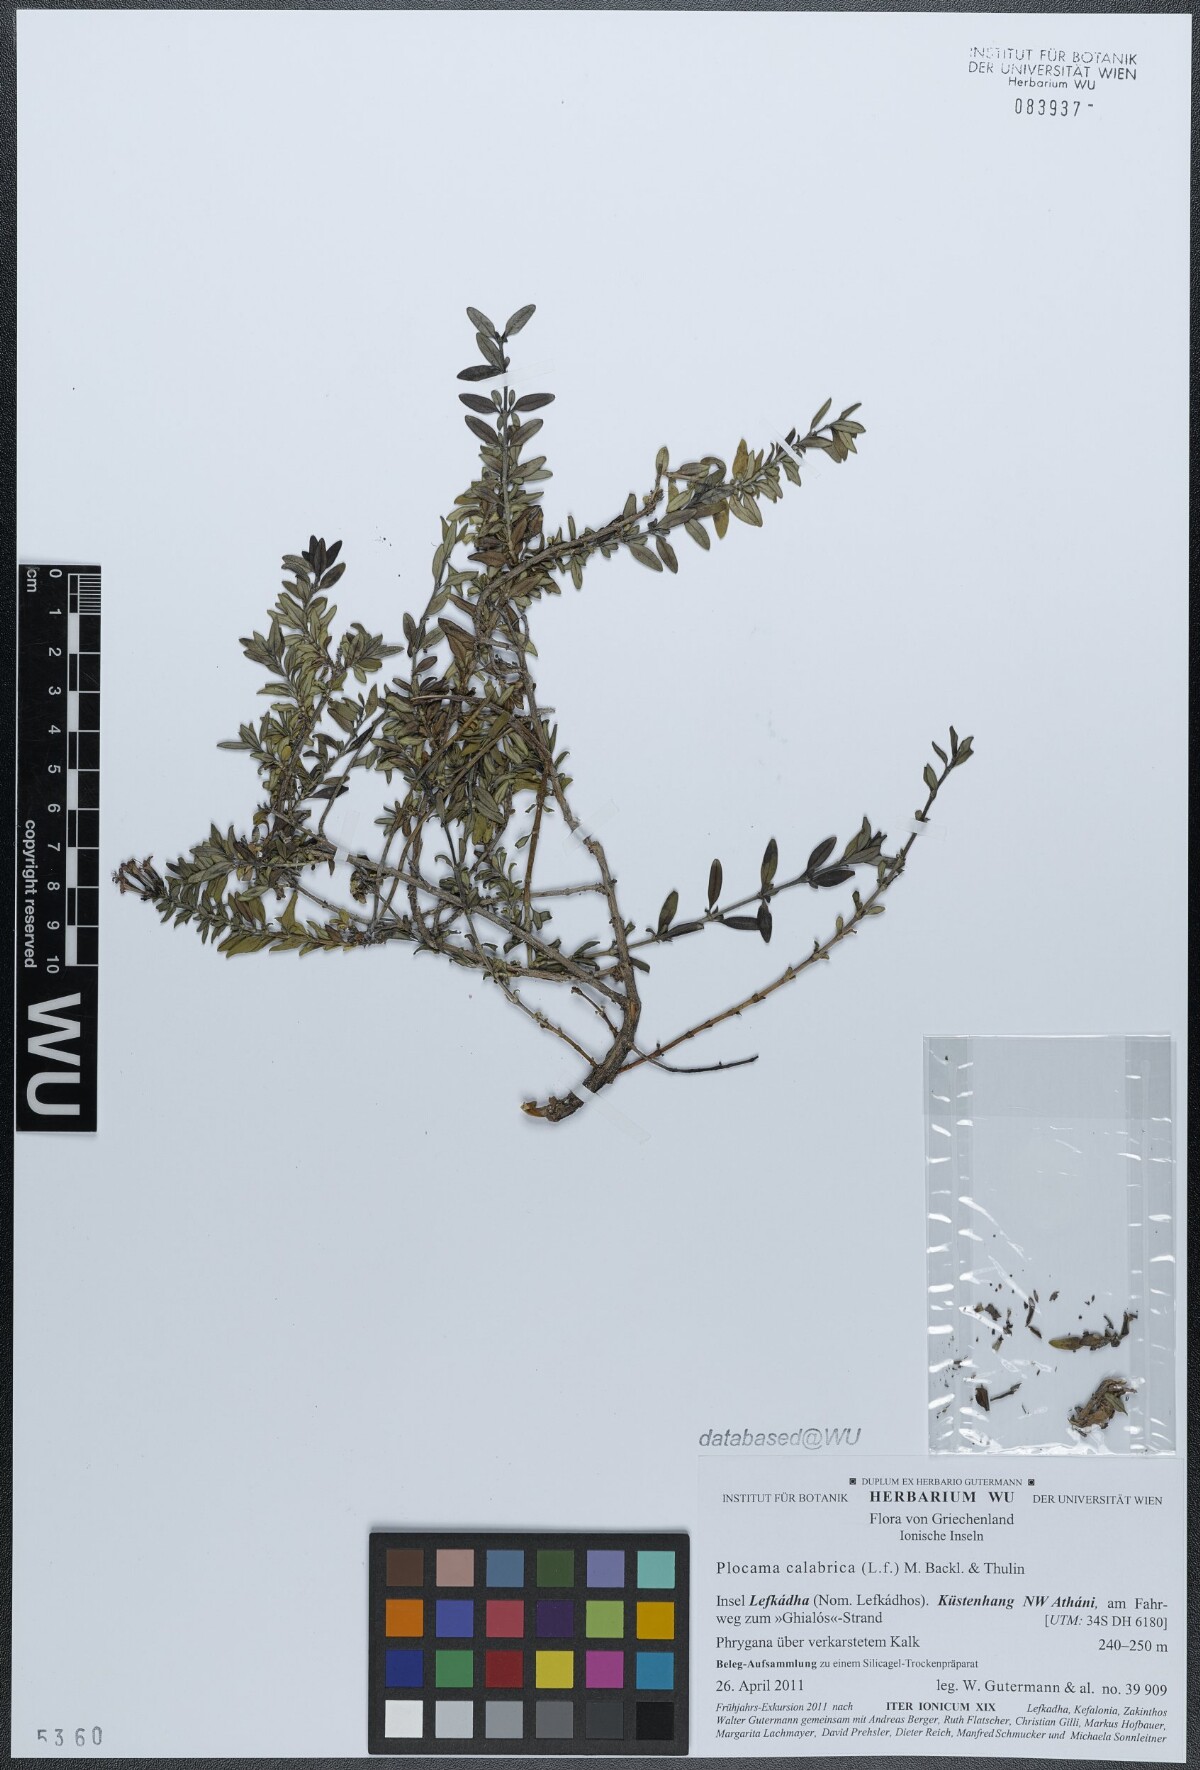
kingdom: Plantae
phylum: Tracheophyta
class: Magnoliopsida
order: Gentianales
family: Rubiaceae
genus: Plocama
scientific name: Plocama calabrica
